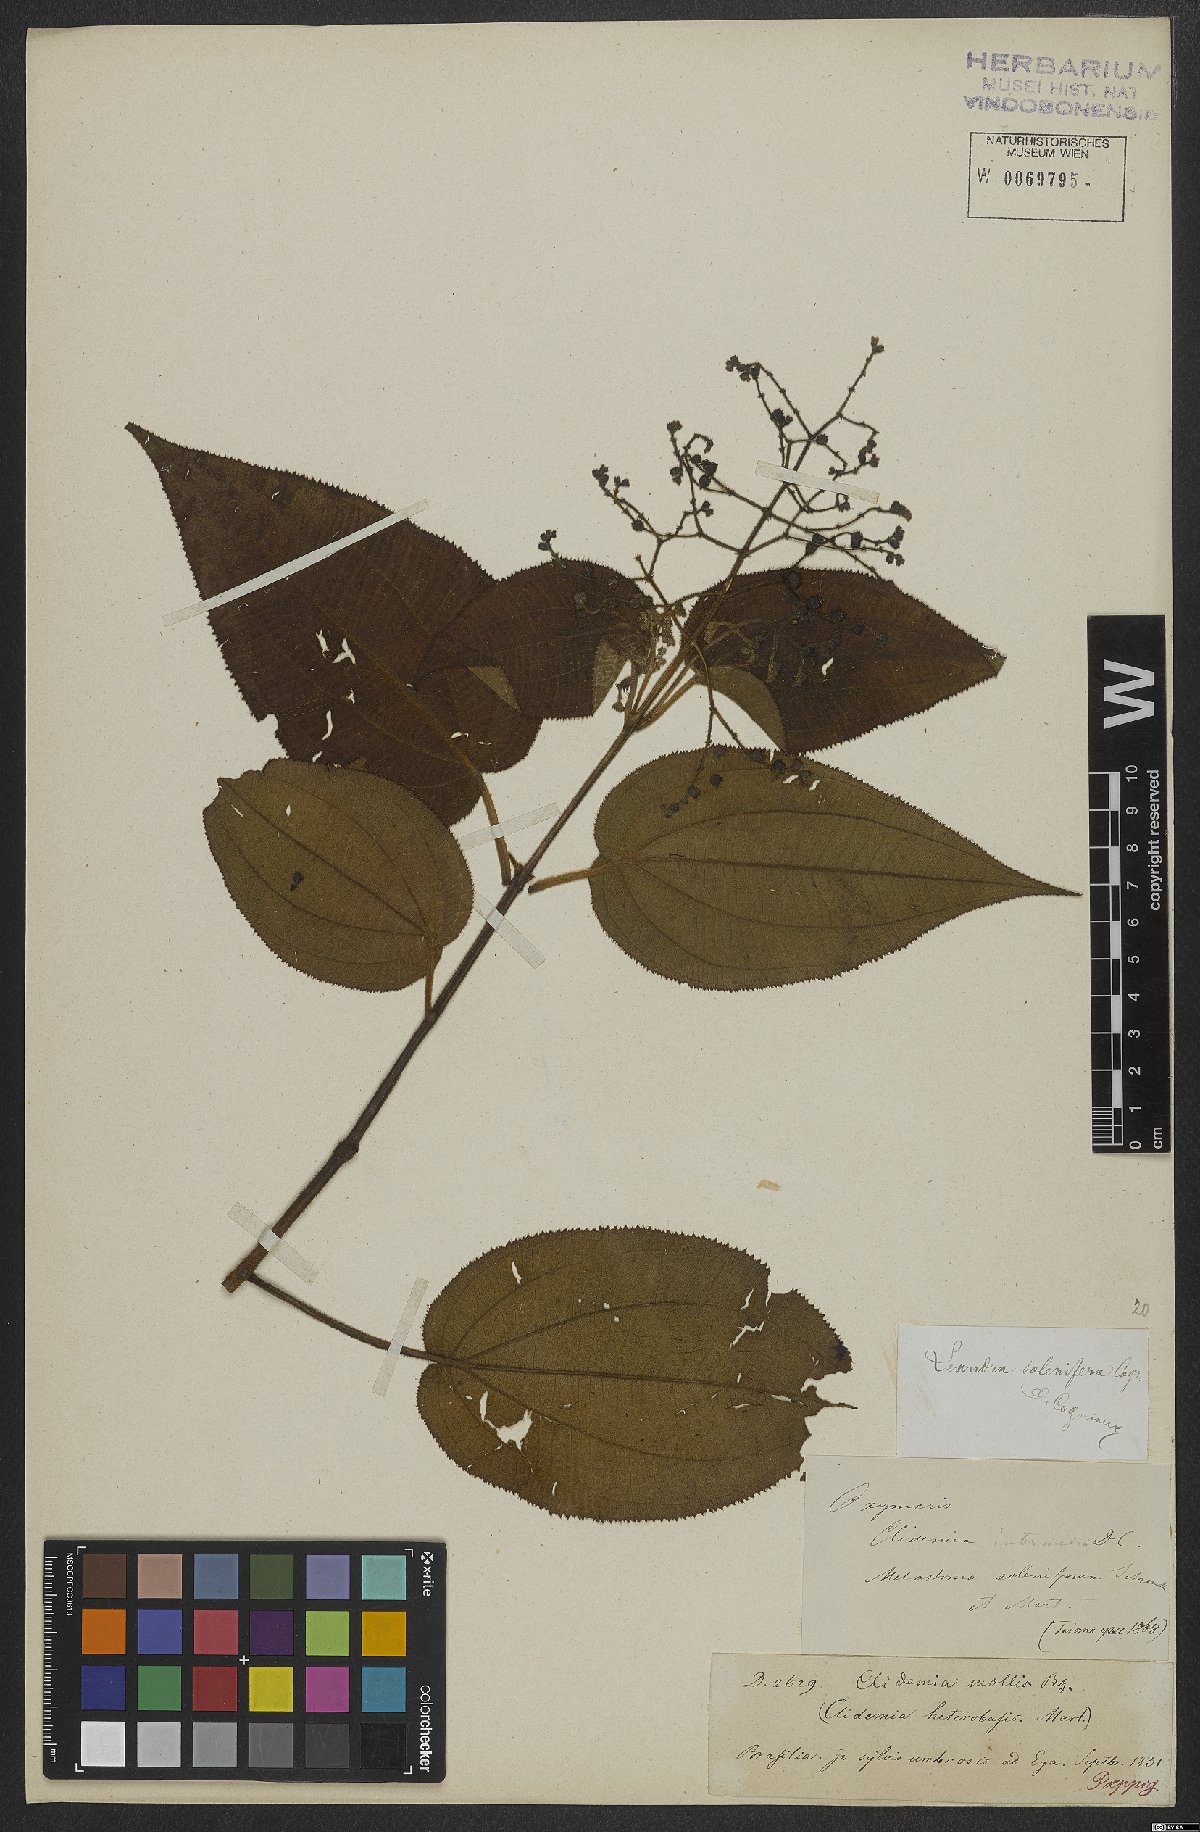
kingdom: Plantae
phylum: Tracheophyta
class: Magnoliopsida
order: Myrtales
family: Melastomataceae
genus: Miconia
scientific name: Miconia solenifera
